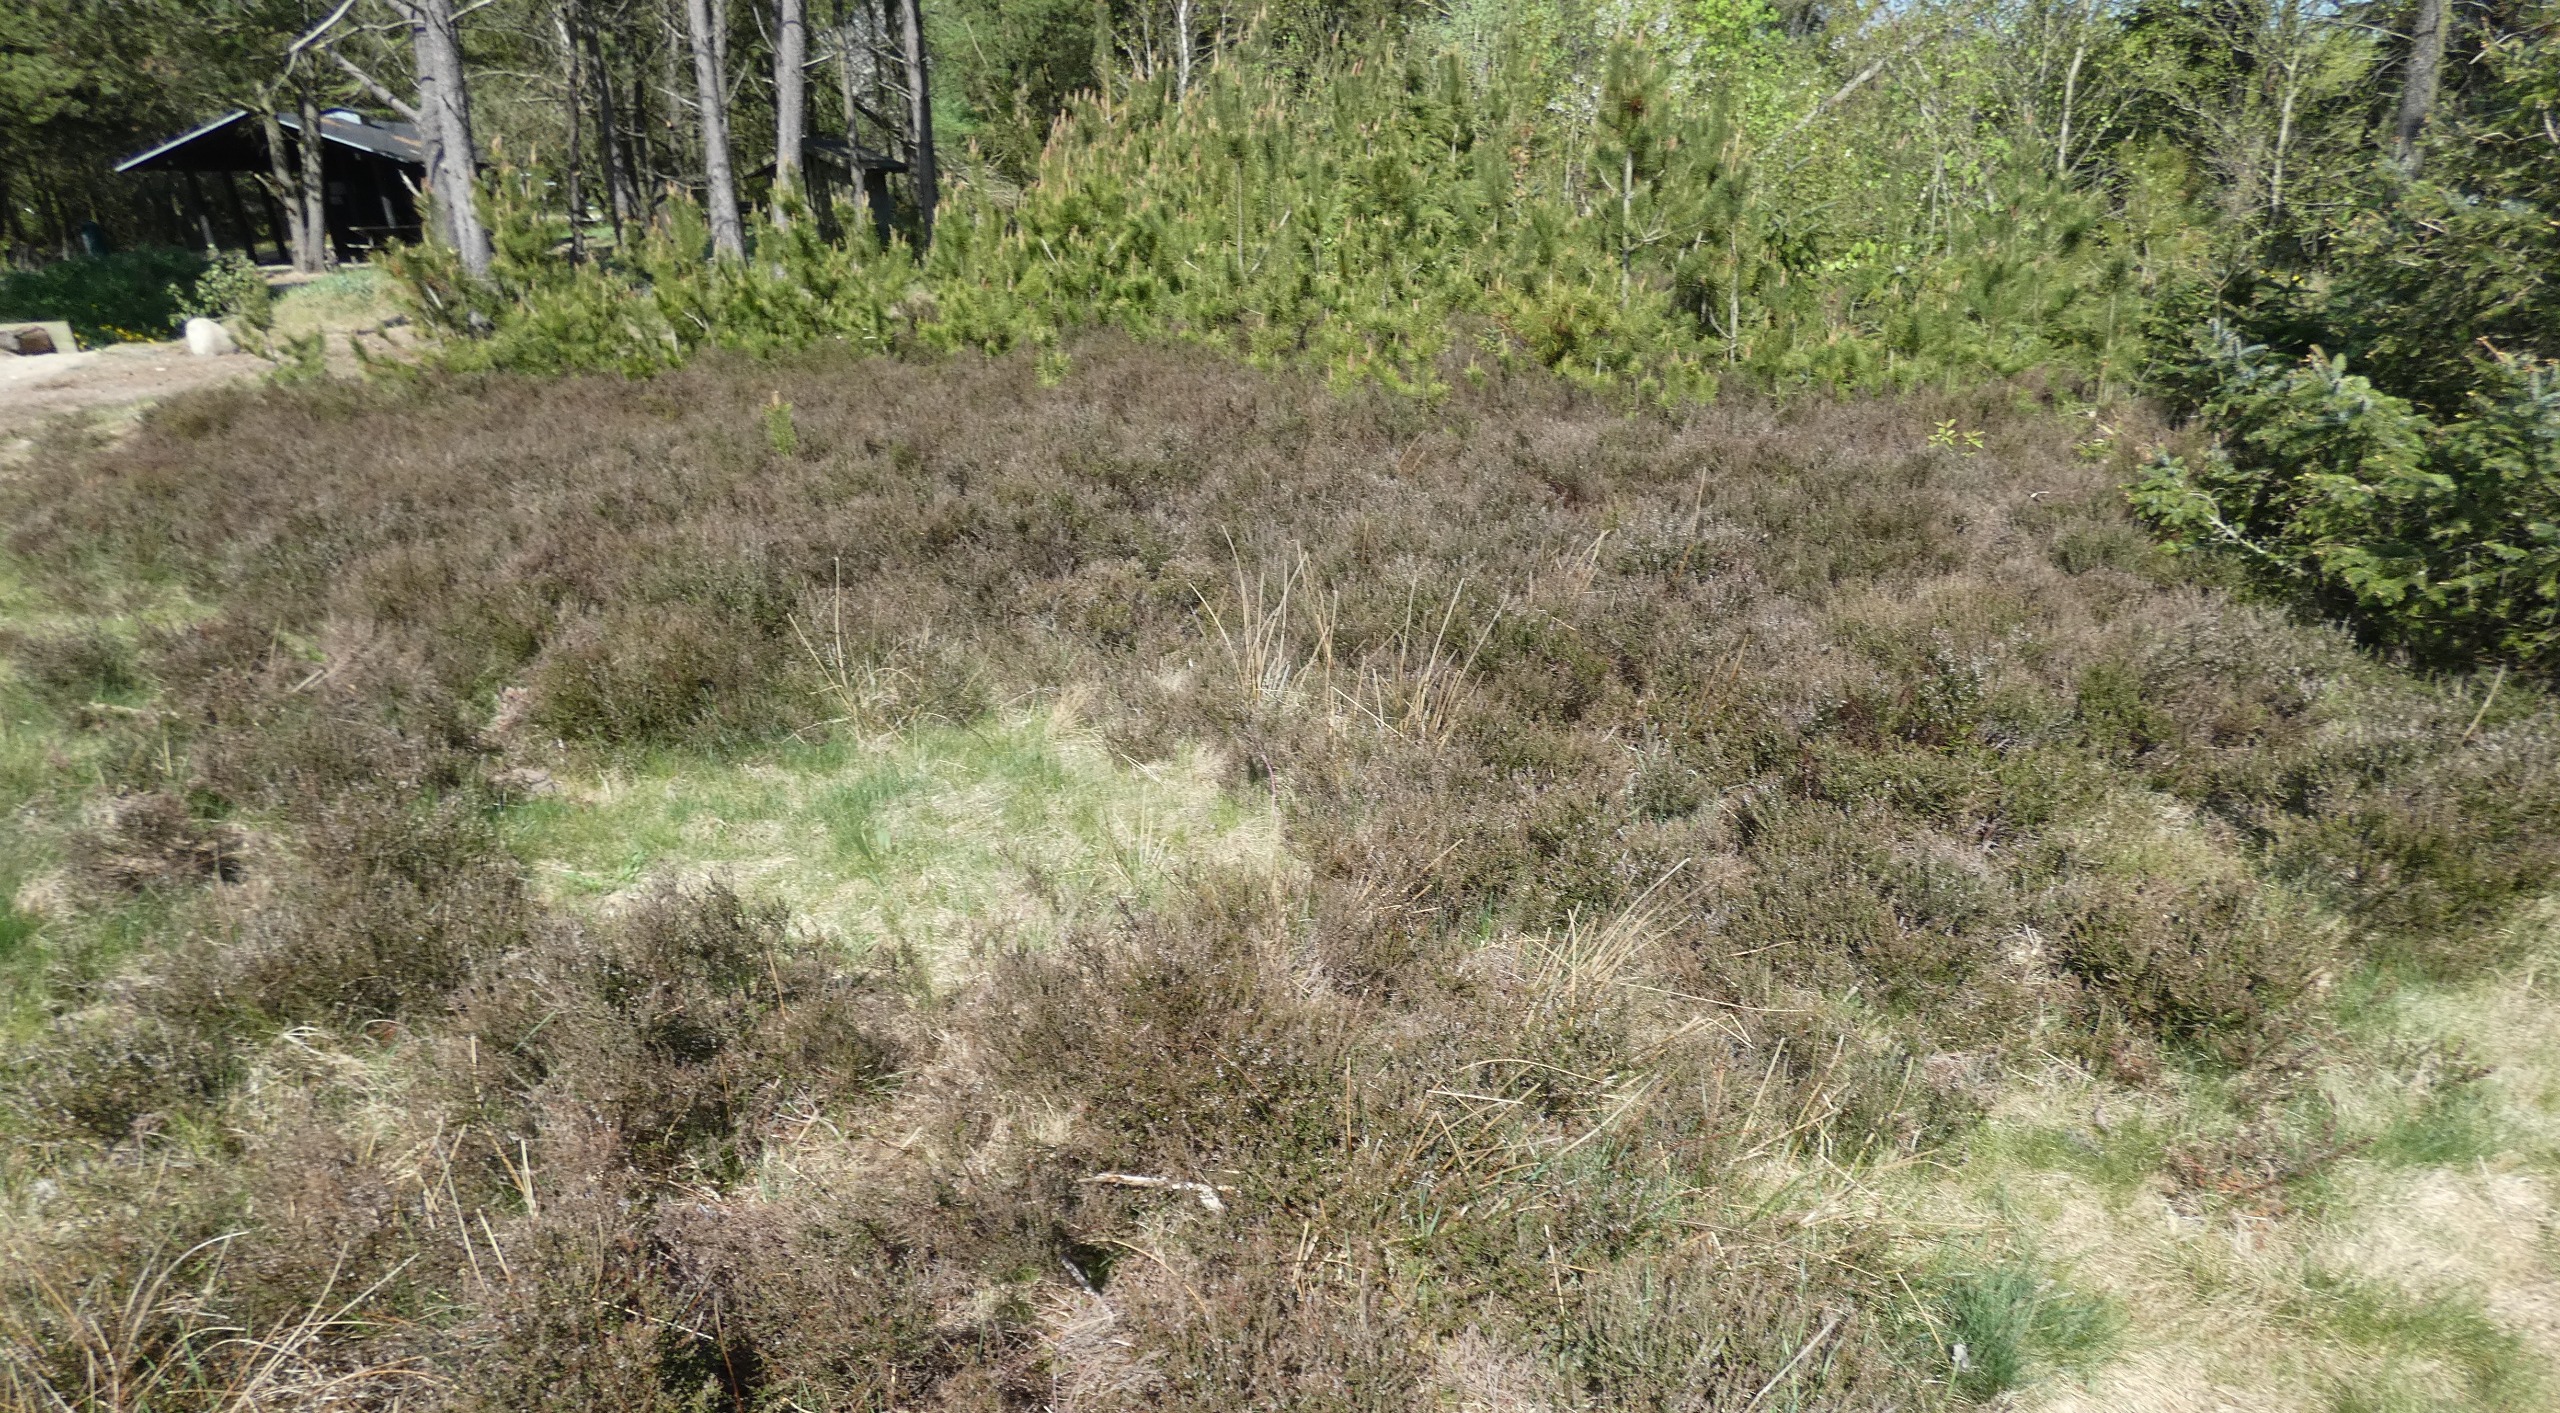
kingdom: Plantae
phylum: Tracheophyta
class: Magnoliopsida
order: Ericales
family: Ericaceae
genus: Calluna
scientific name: Calluna vulgaris
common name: Hedelyng
